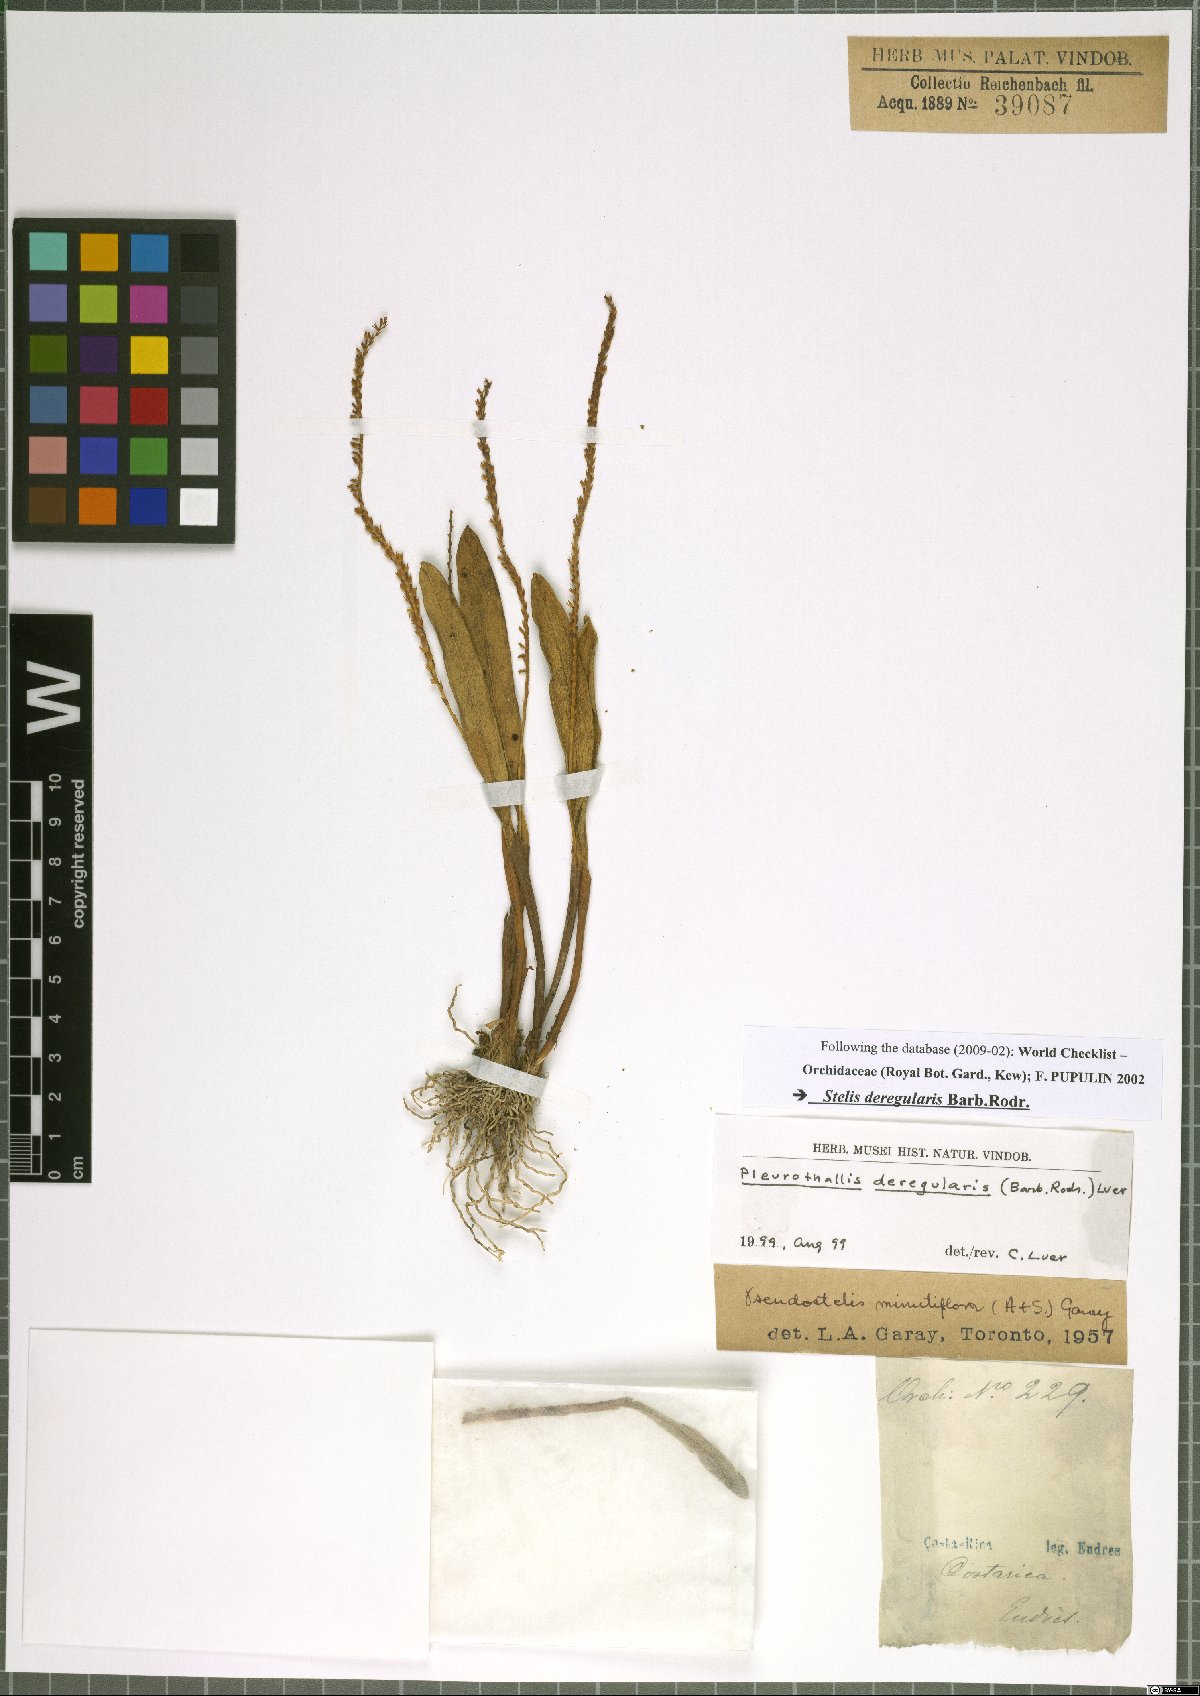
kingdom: Plantae
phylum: Tracheophyta
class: Liliopsida
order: Asparagales
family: Orchidaceae
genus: Stelis
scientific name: Stelis deregularis
